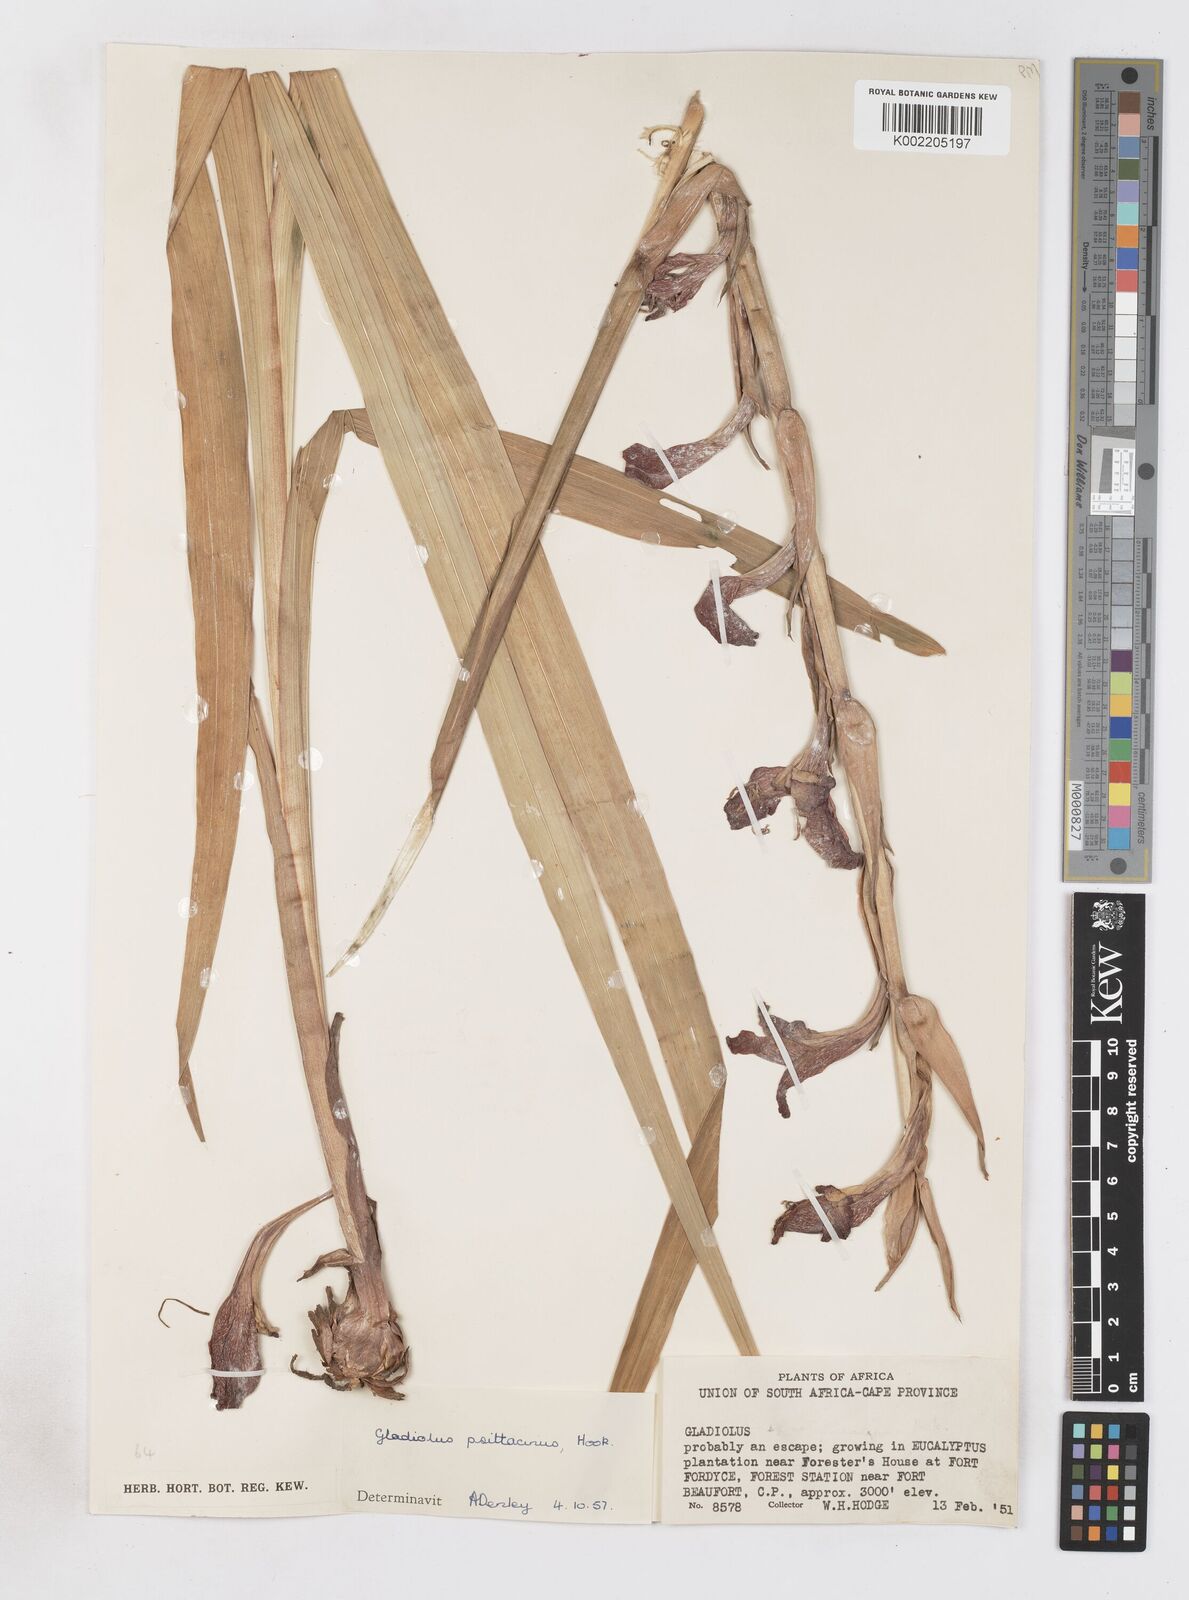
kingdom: Plantae
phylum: Tracheophyta
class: Liliopsida
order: Asparagales
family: Iridaceae
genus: Gladiolus
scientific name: Gladiolus dalenii
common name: Cornflag
